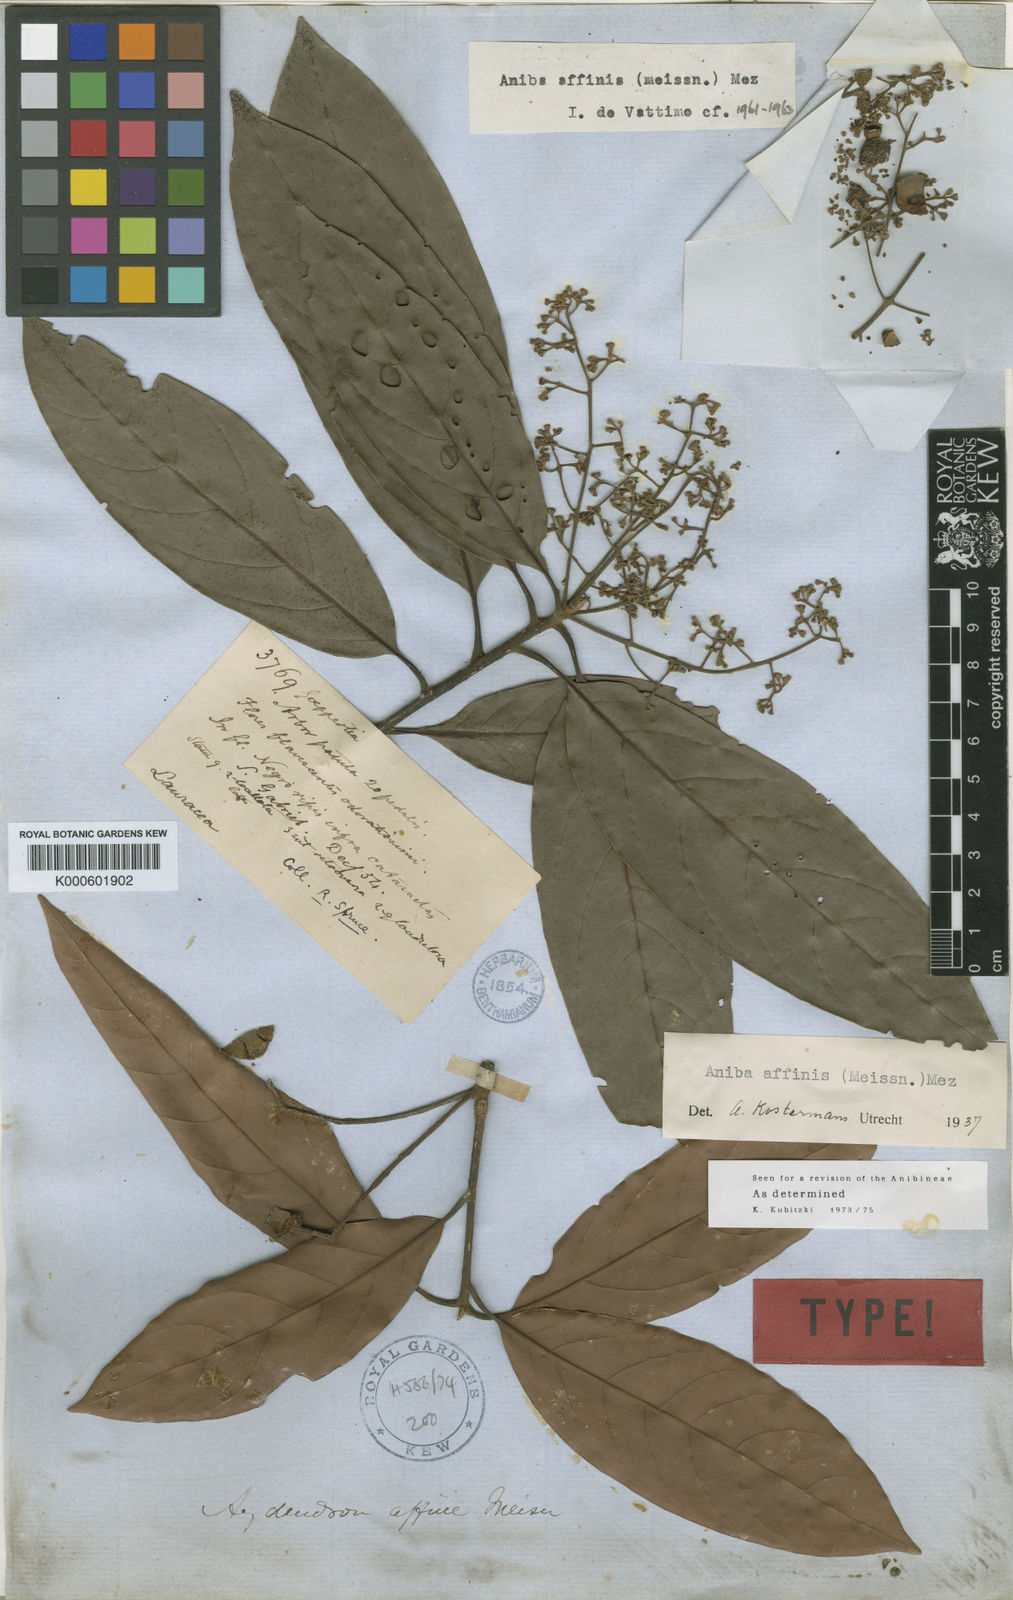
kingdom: Plantae
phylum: Tracheophyta
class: Magnoliopsida
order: Laurales
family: Lauraceae
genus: Aniba
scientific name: Aniba affinis
